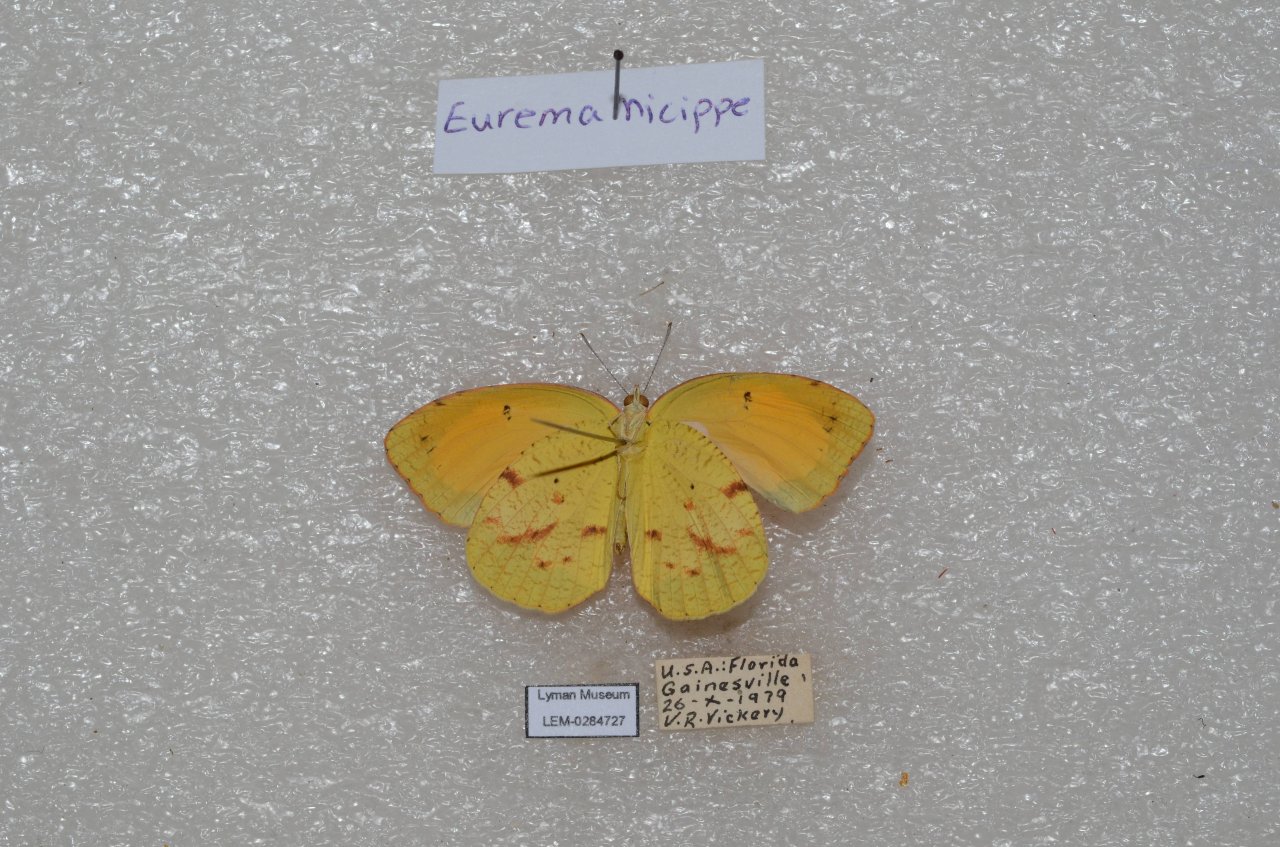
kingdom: Animalia
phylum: Arthropoda
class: Insecta
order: Lepidoptera
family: Pieridae
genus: Abaeis
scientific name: Abaeis nicippe
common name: Sleepy Orange
